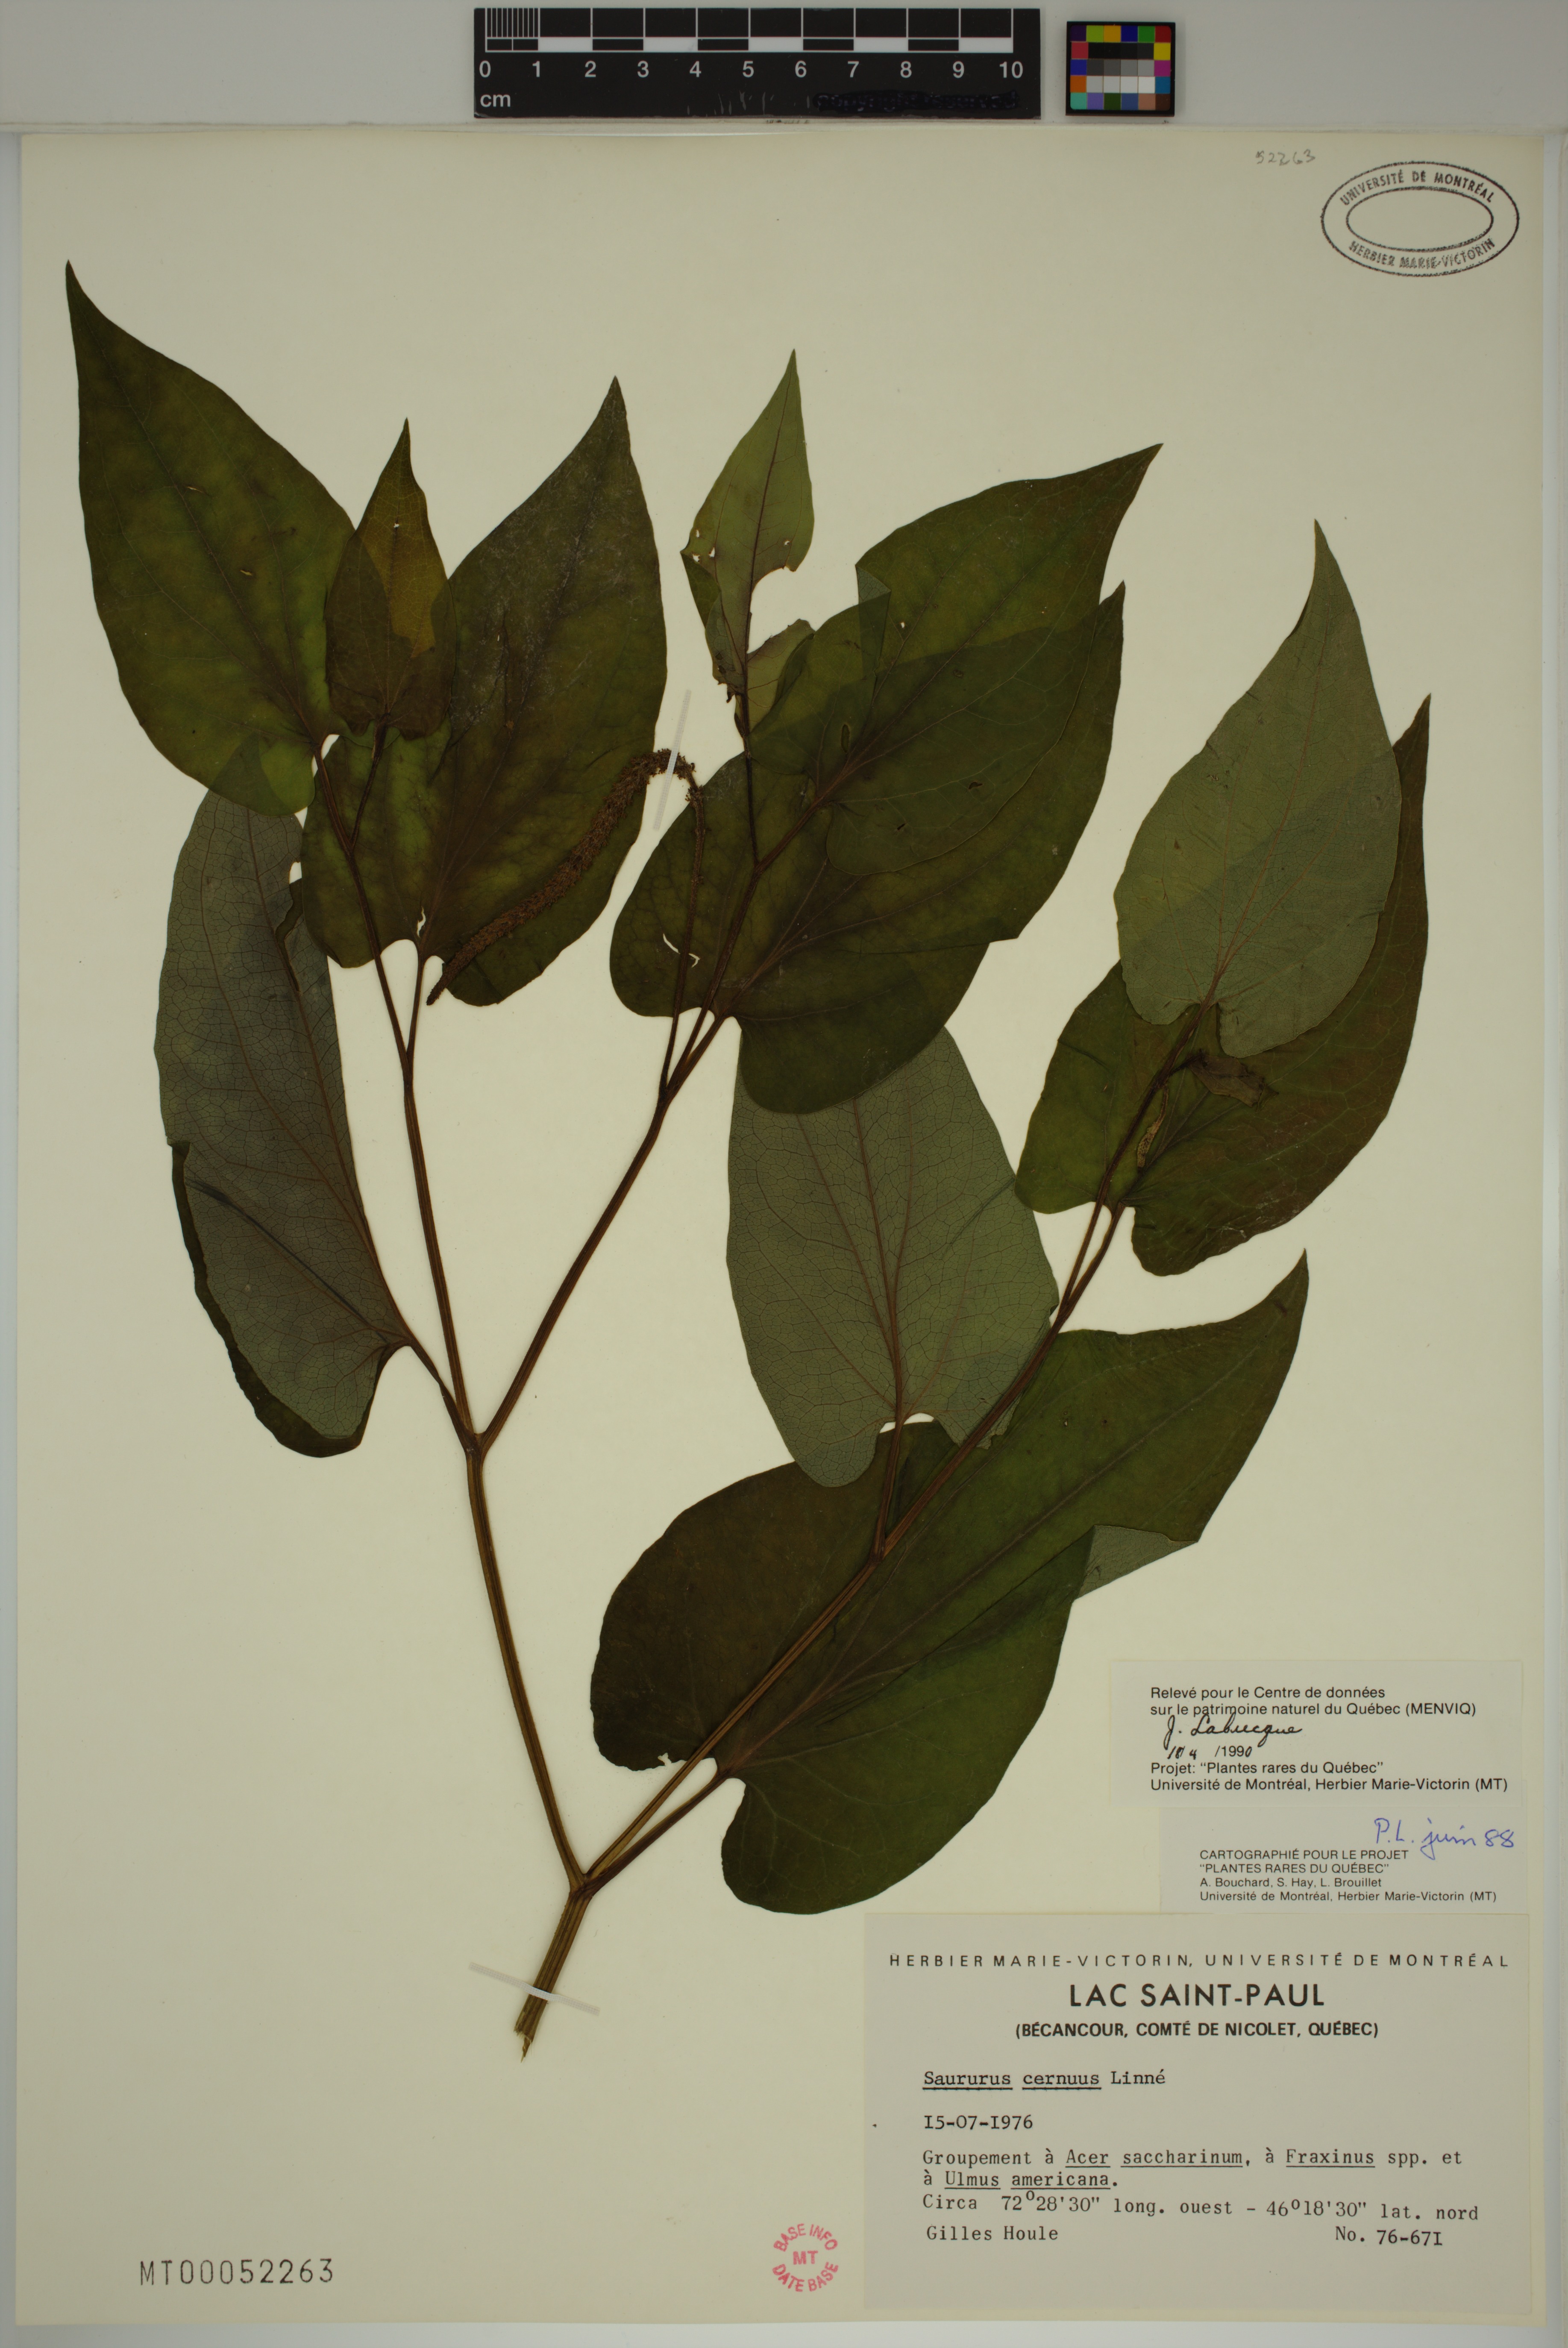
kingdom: Plantae
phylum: Tracheophyta
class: Magnoliopsida
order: Piperales
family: Saururaceae
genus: Saururus
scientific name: Saururus cernuus
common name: Lizard's-tail
